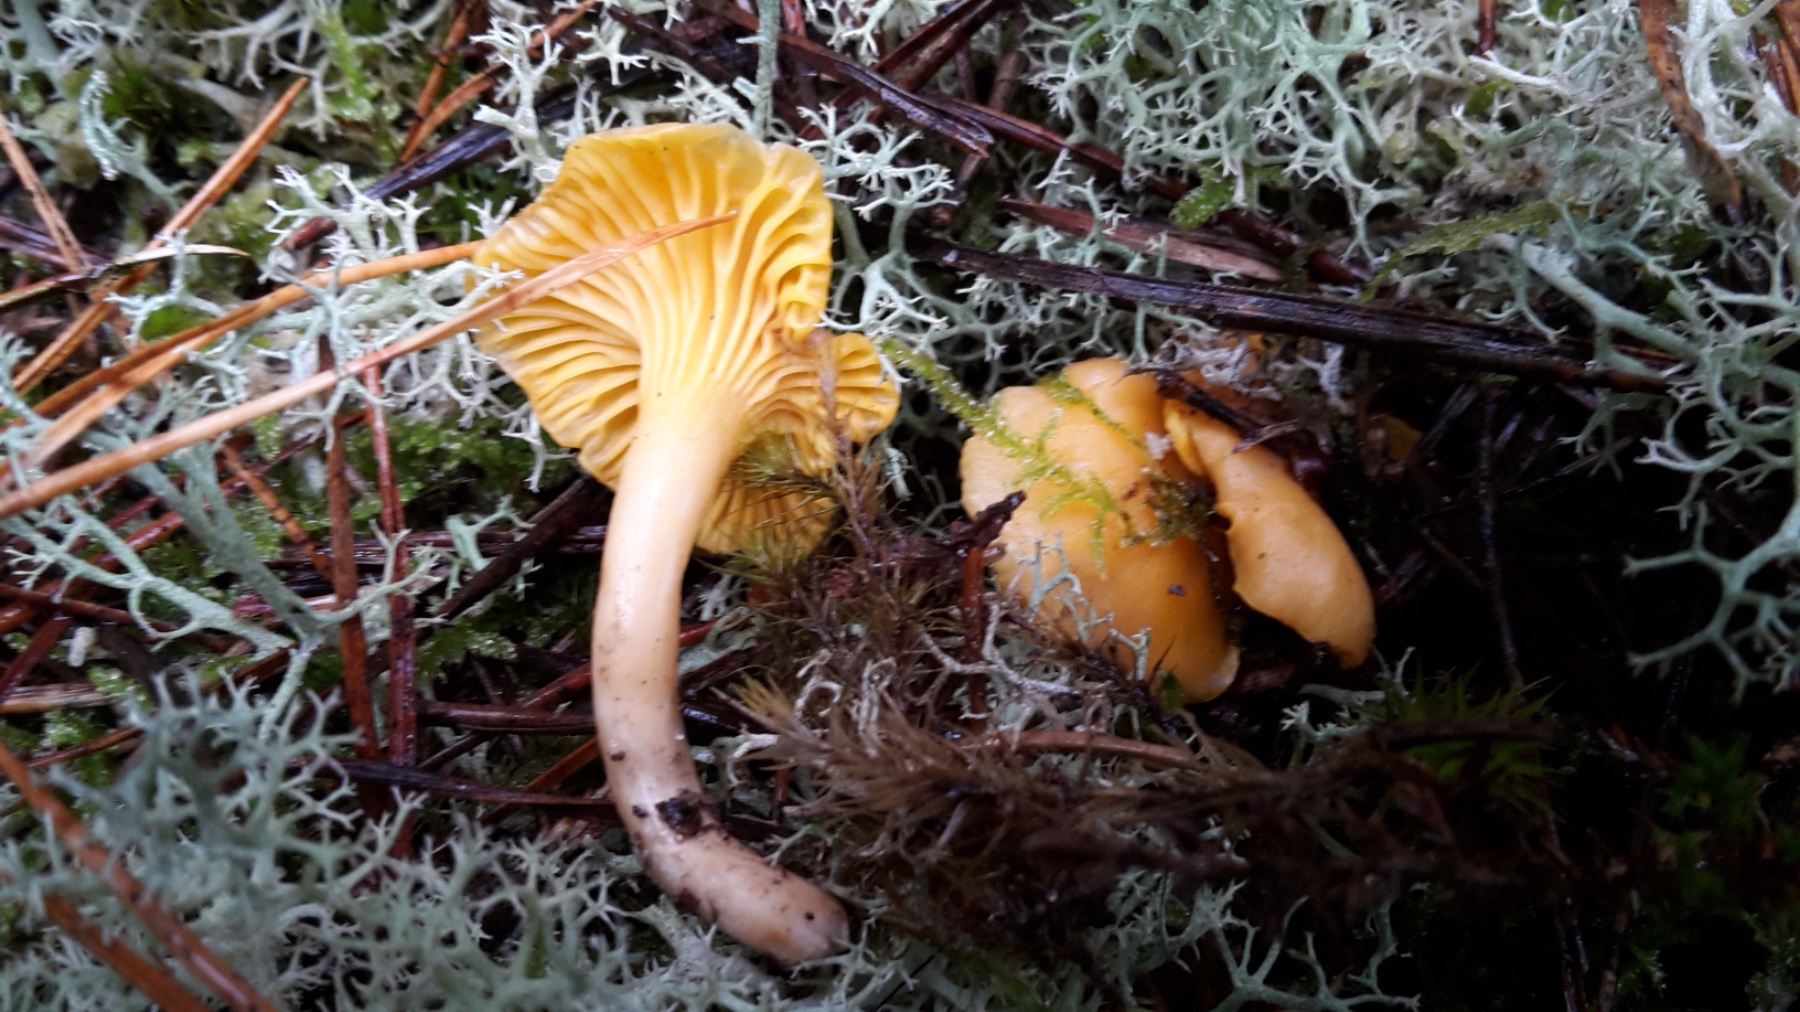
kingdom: Fungi
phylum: Basidiomycota
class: Agaricomycetes
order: Cantharellales
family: Hydnaceae
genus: Cantharellus
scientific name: Cantharellus cibarius
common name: almindelig kantarel
